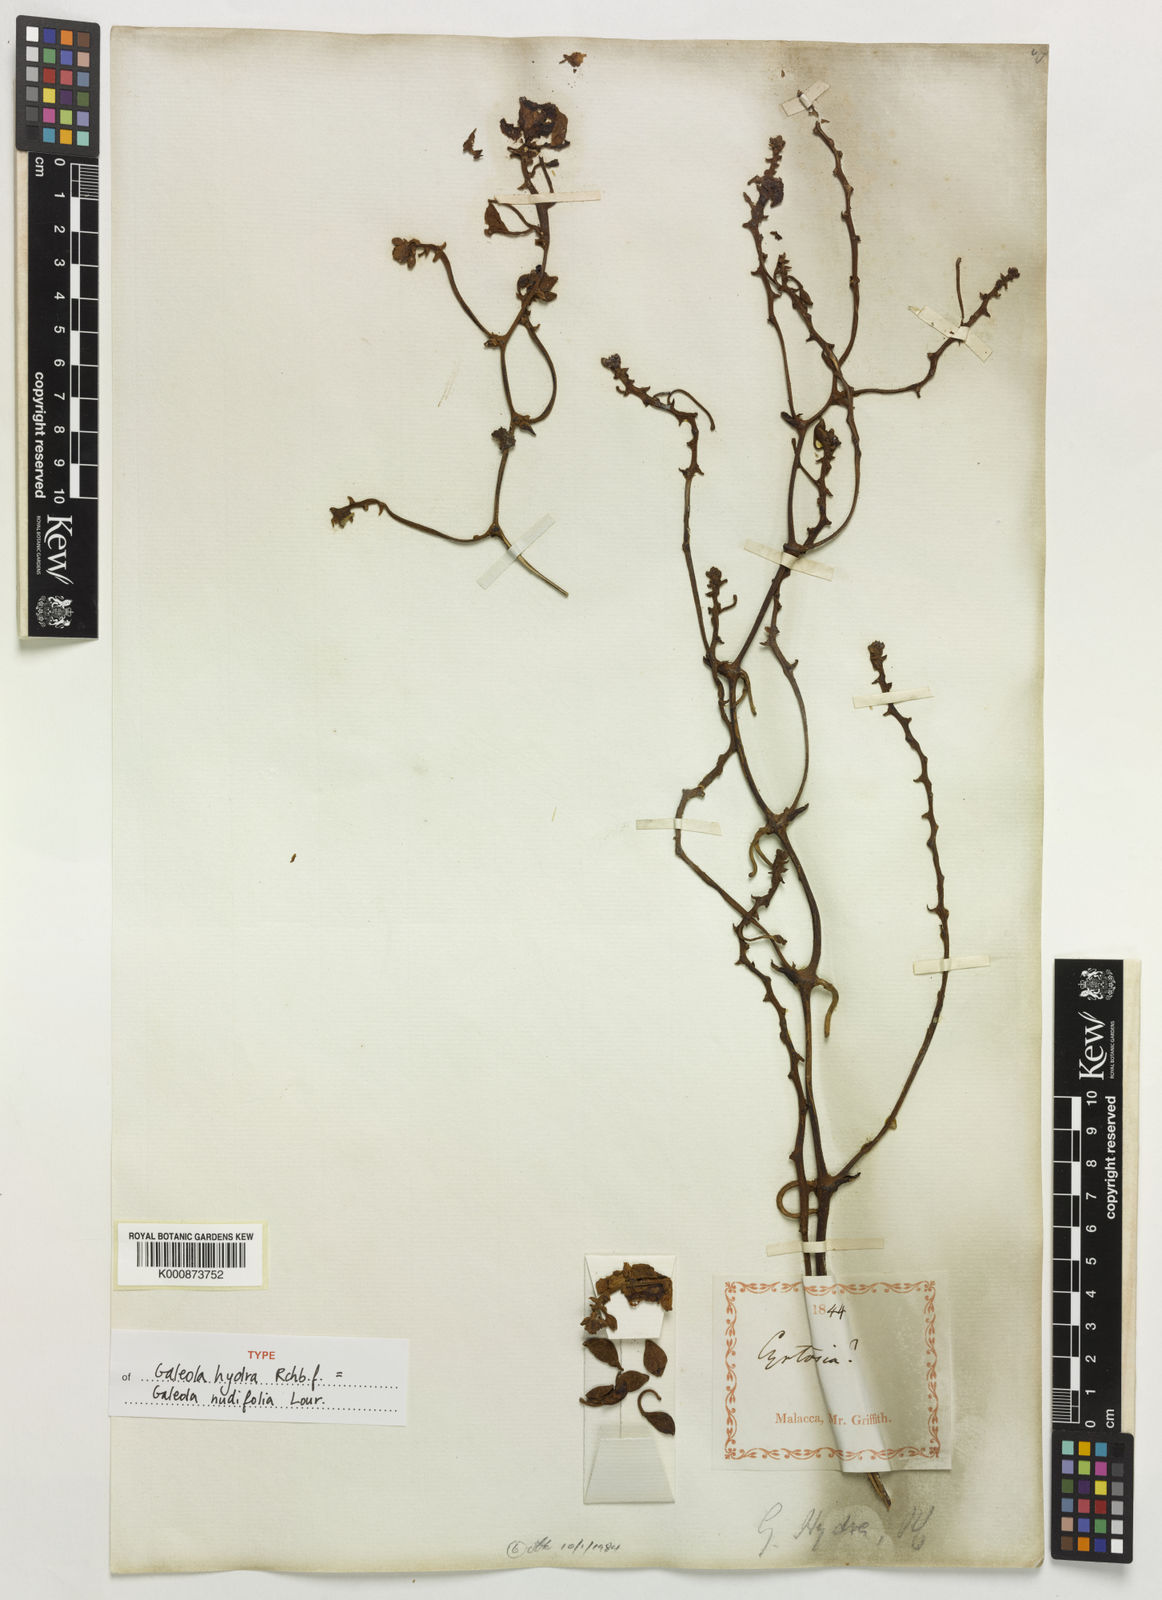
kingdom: Plantae
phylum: Tracheophyta
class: Liliopsida
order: Asparagales
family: Orchidaceae
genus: Galeola
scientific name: Galeola nudifolia
